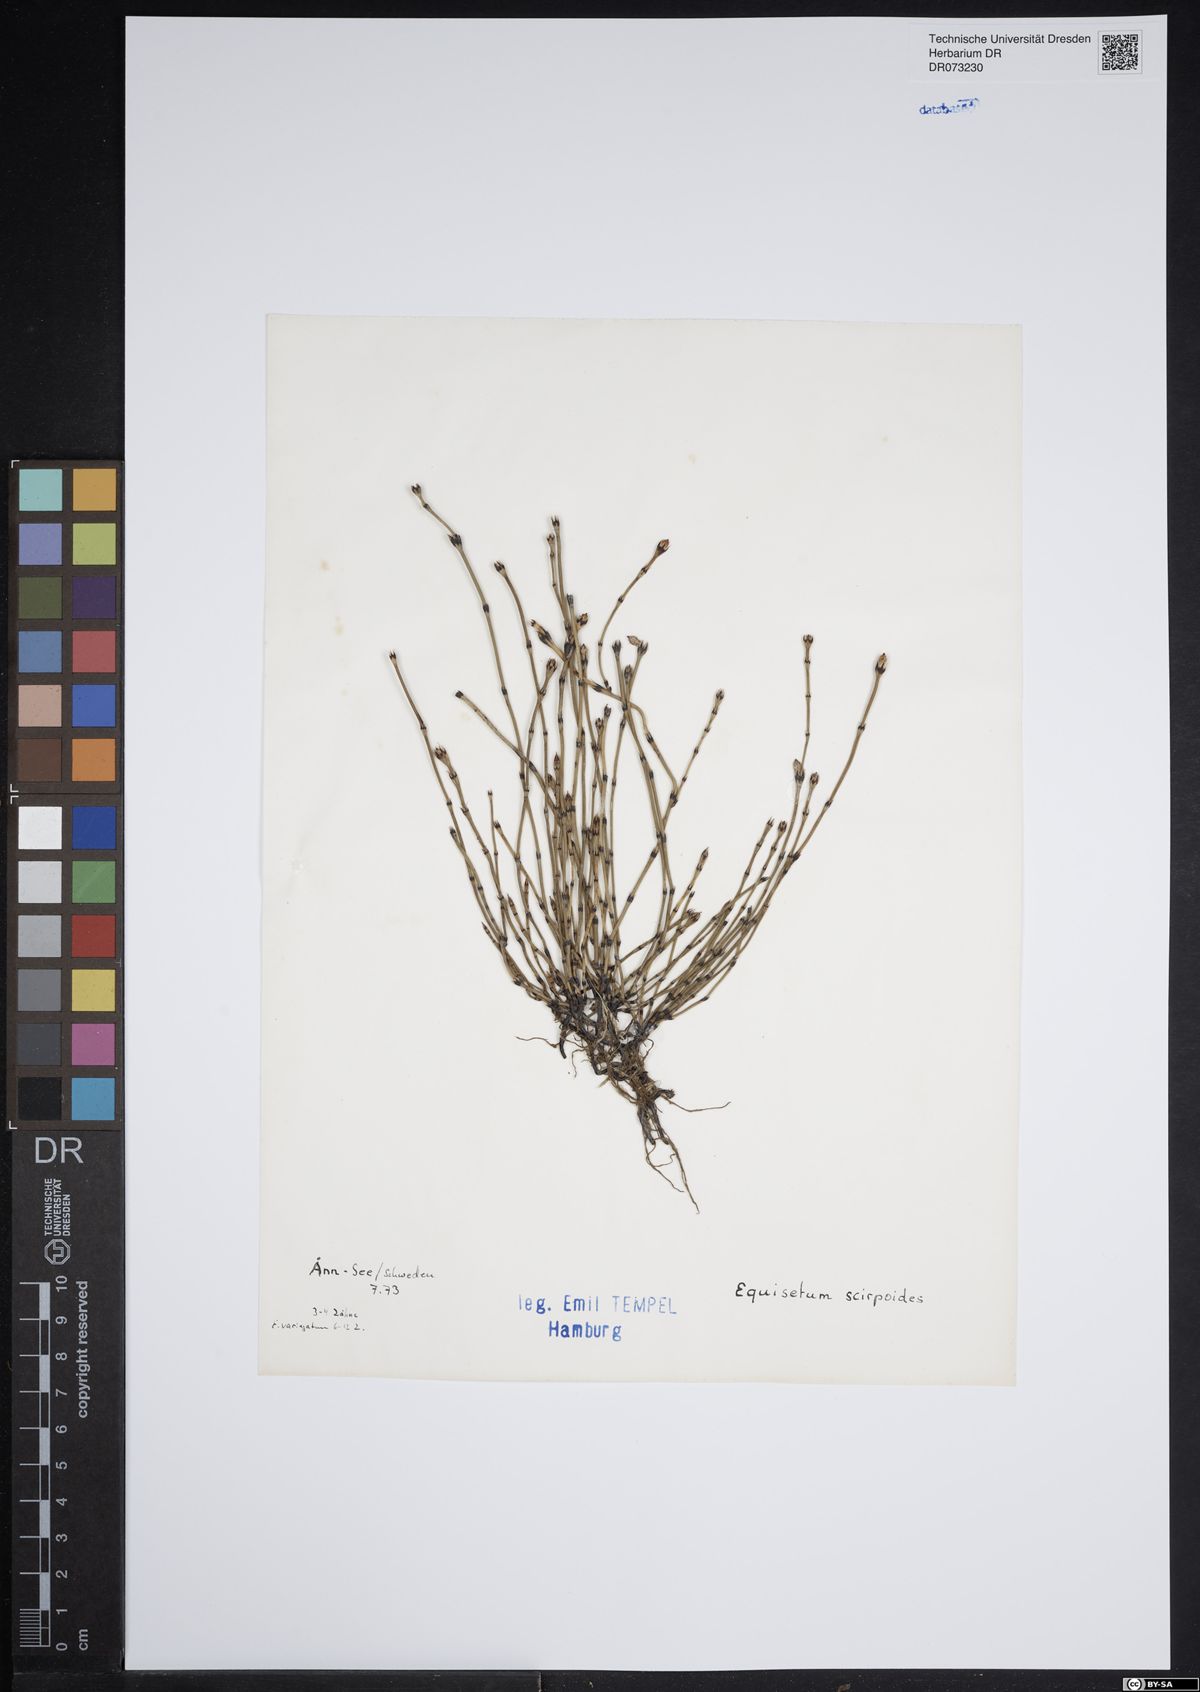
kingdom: Plantae
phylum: Tracheophyta
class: Polypodiopsida
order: Equisetales
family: Equisetaceae
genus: Equisetum
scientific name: Equisetum scirpoides
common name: Delicate horsetail
